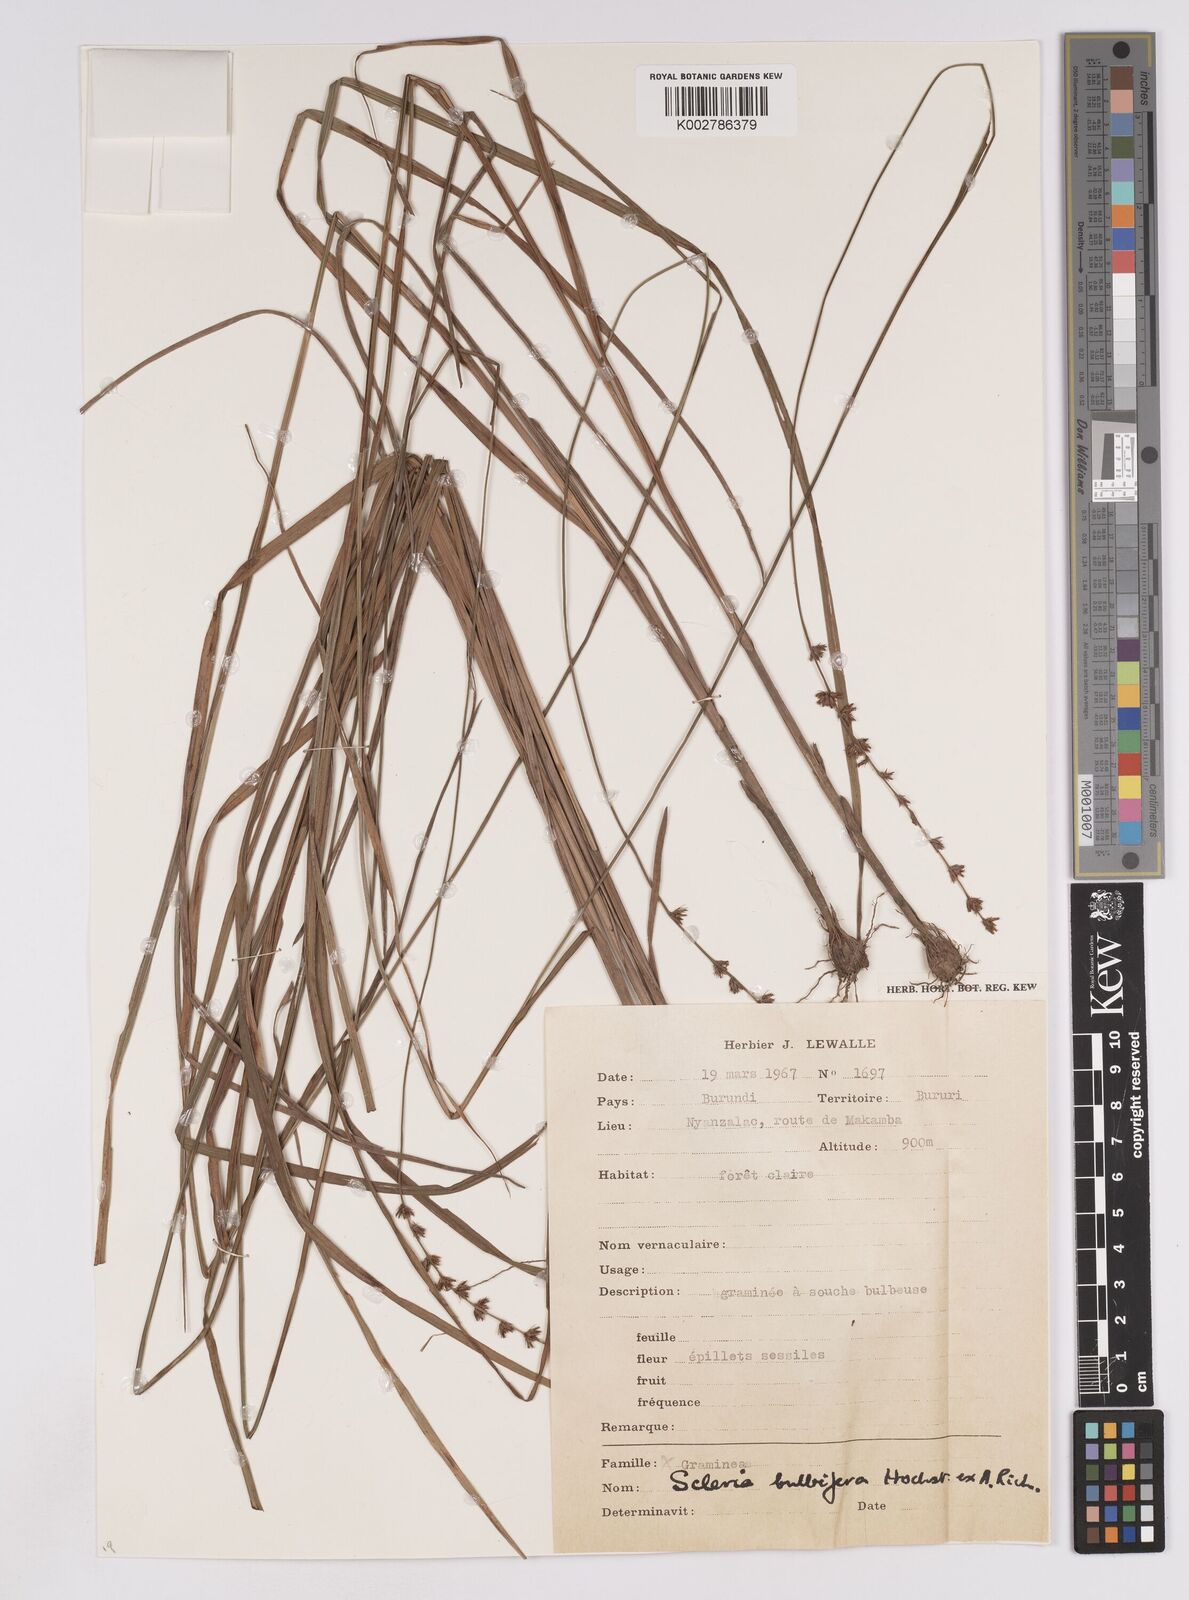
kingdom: Plantae
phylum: Tracheophyta
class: Liliopsida
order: Poales
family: Cyperaceae
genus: Scleria
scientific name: Scleria bulbifera
